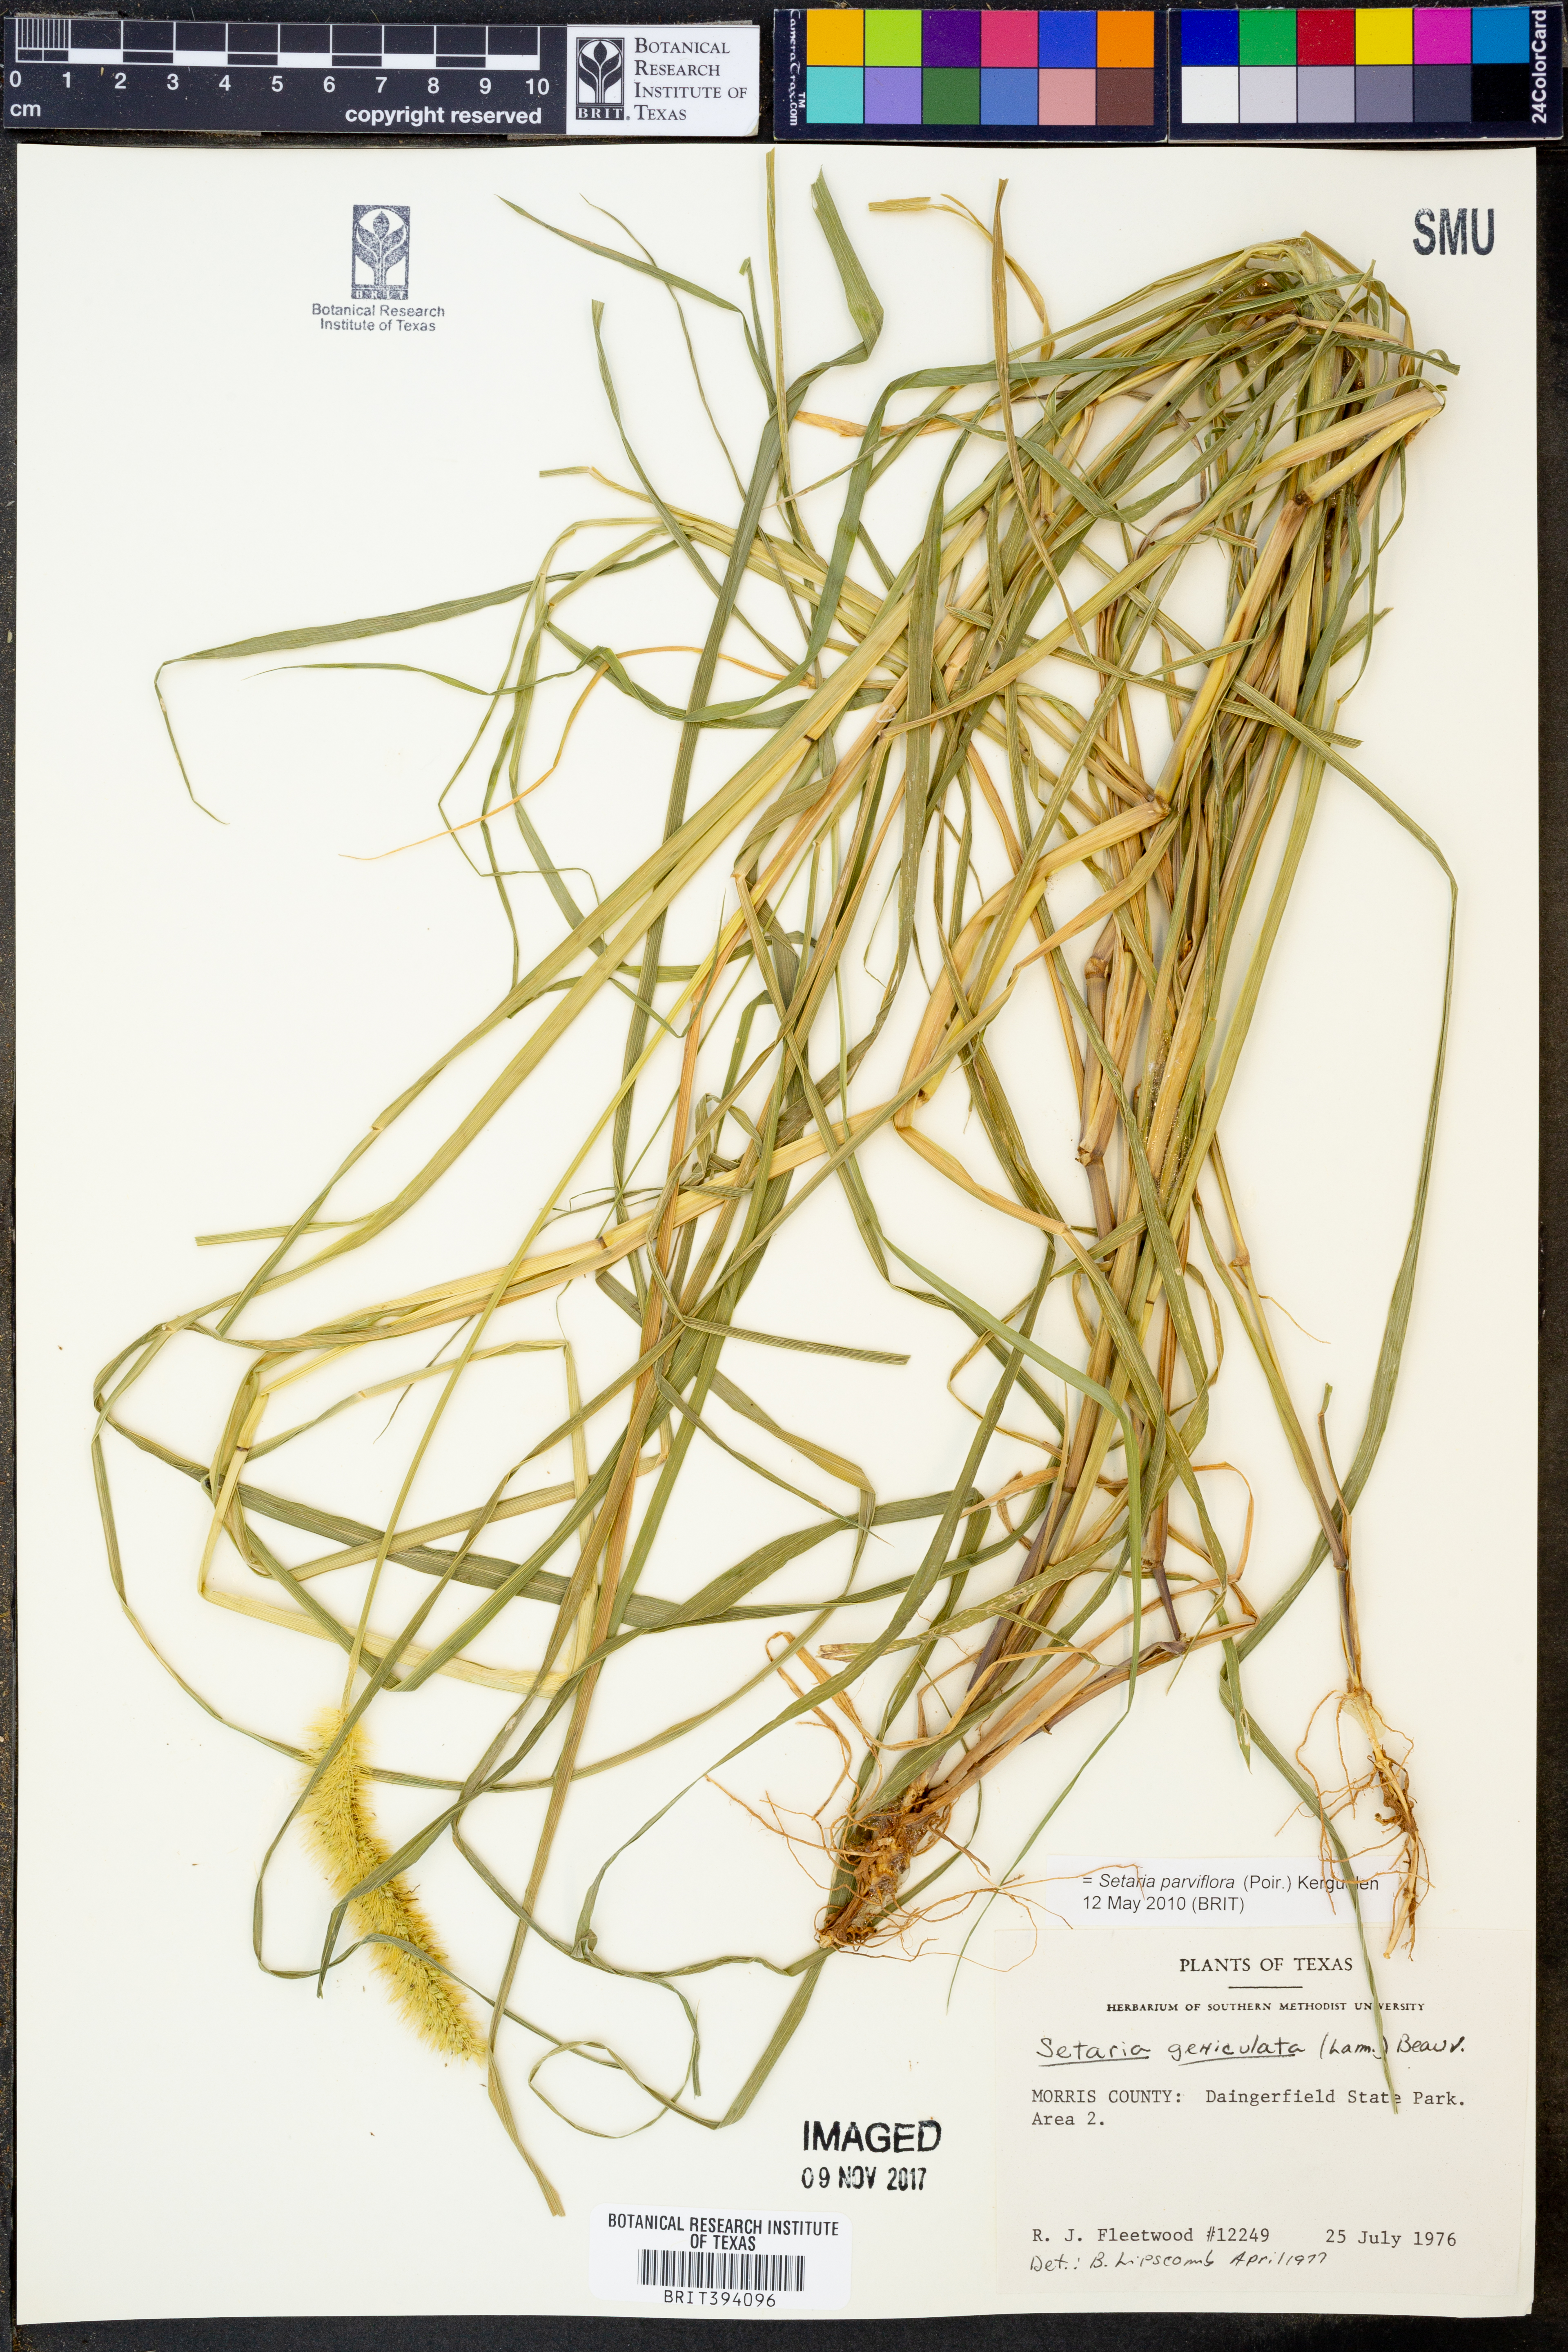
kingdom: Plantae
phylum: Tracheophyta
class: Liliopsida
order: Poales
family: Poaceae
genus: Setaria
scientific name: Setaria parviflora
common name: Knotroot bristle-grass
